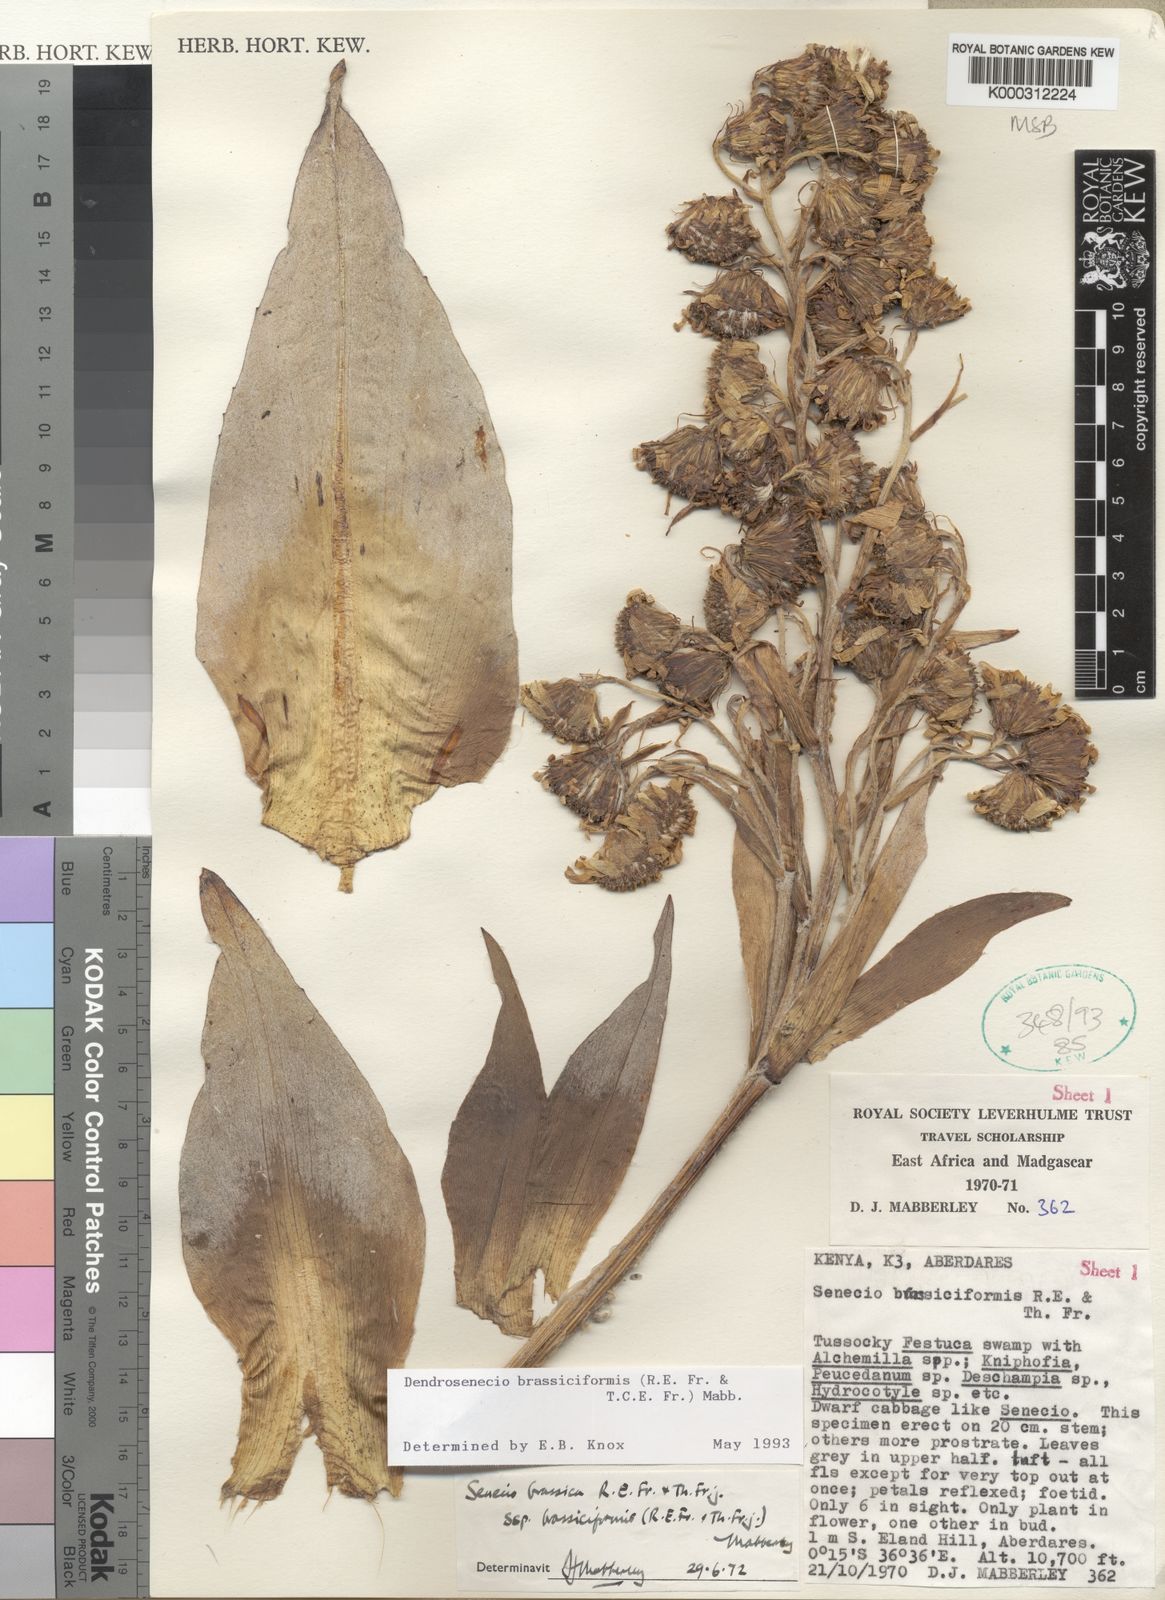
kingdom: Plantae
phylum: Tracheophyta
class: Magnoliopsida
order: Asterales
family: Asteraceae
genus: Dendrosenecio
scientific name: Dendrosenecio brassiciformis
